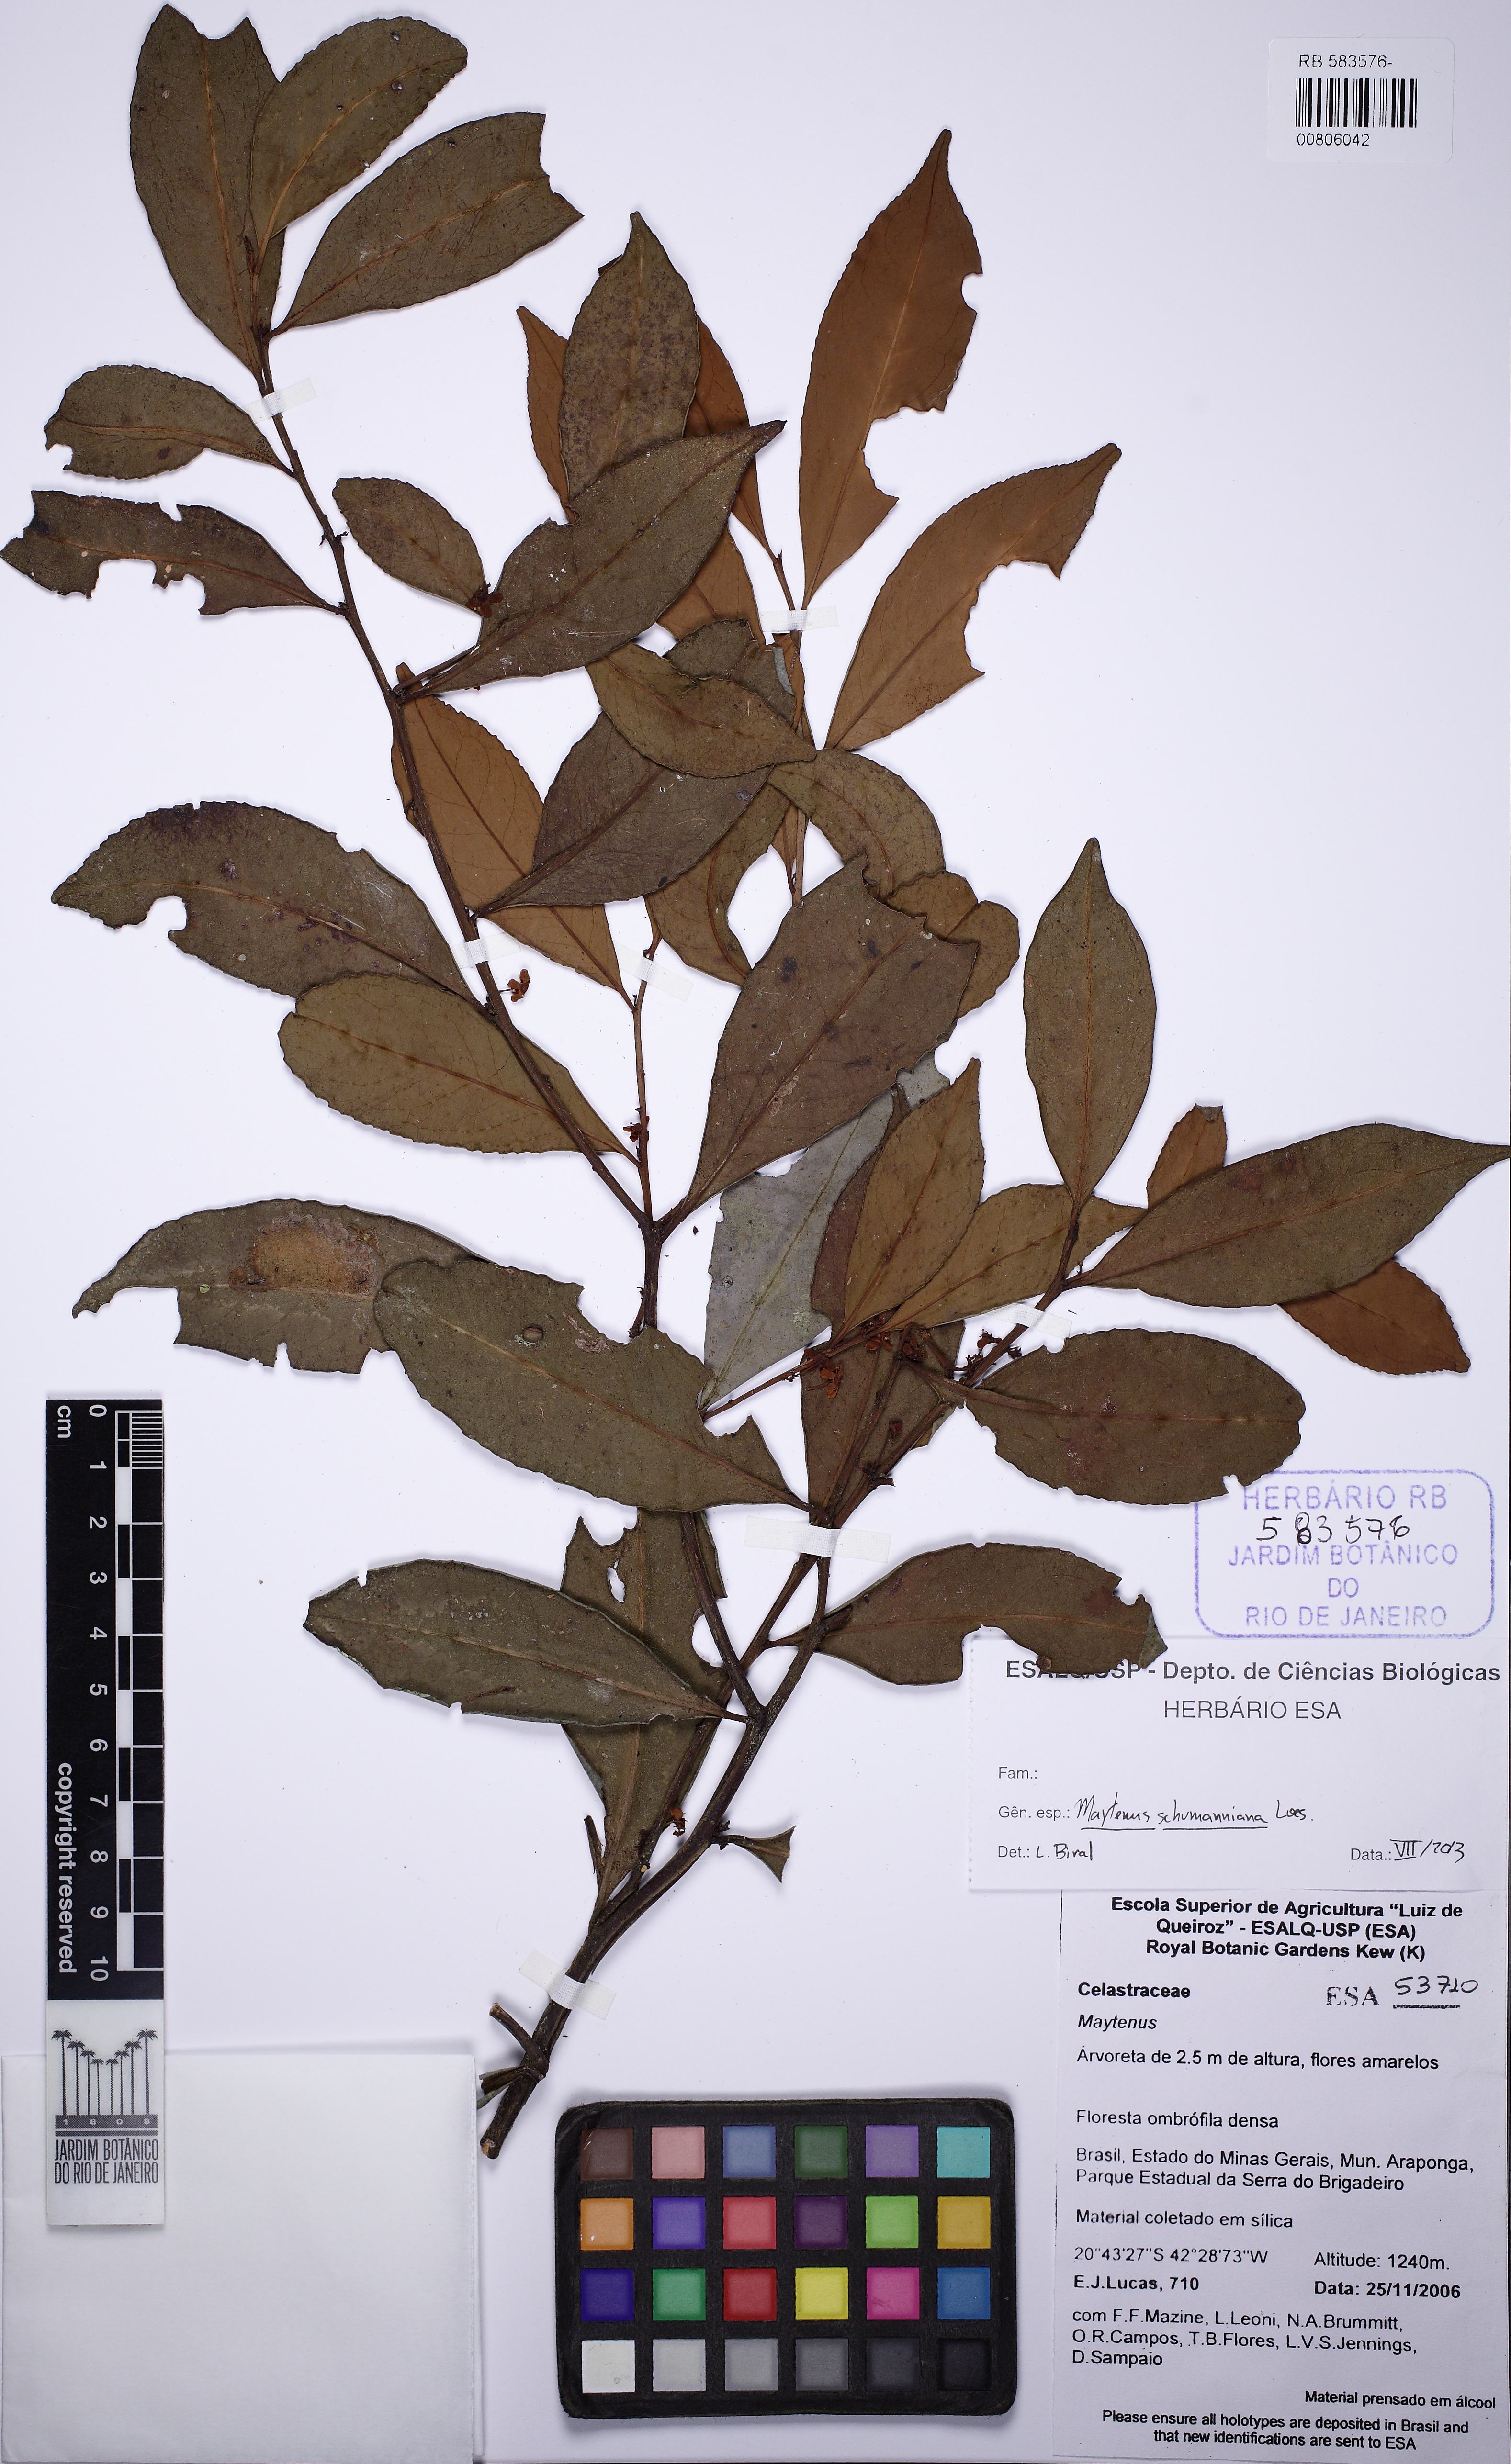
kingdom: Plantae
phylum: Tracheophyta
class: Magnoliopsida
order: Celastrales
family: Celastraceae
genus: Monteverdia
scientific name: Monteverdia schumanniana
